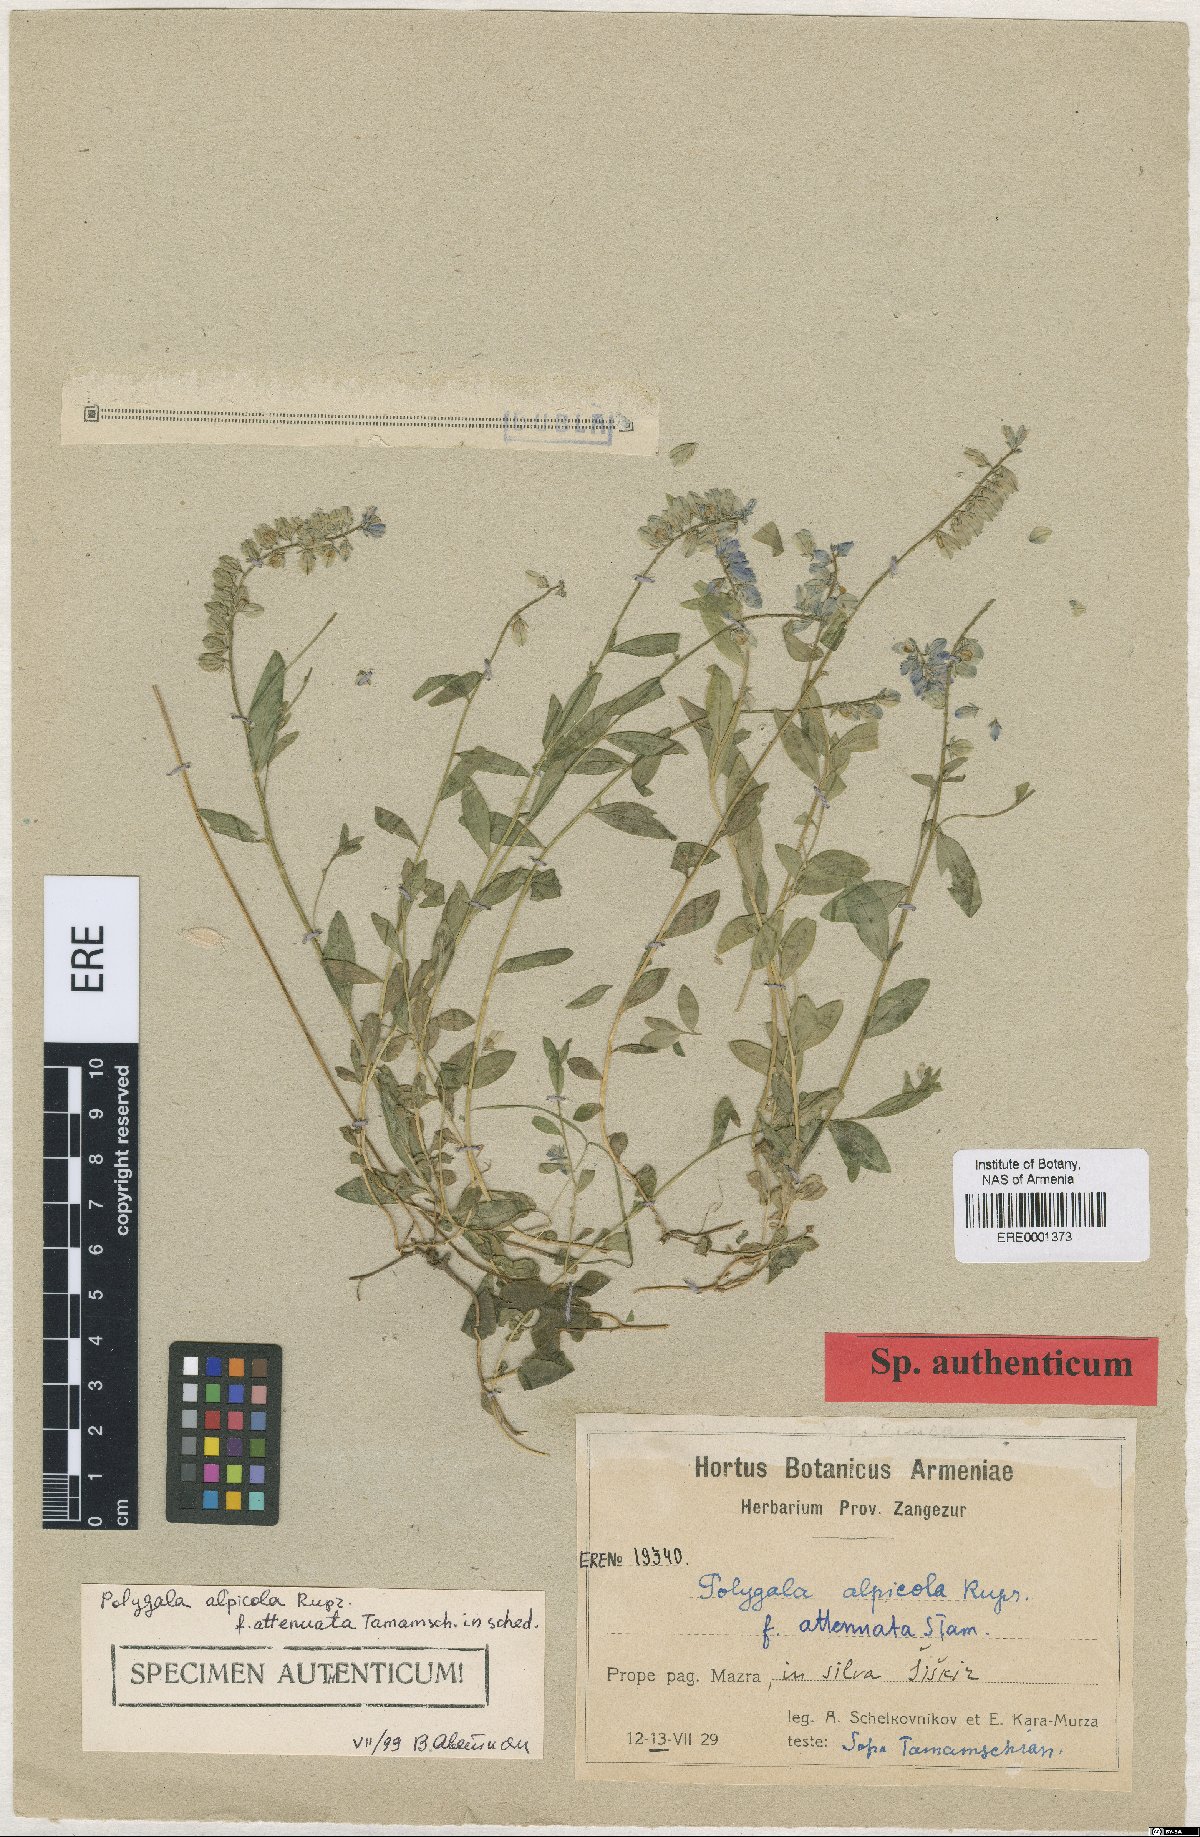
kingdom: Plantae
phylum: Tracheophyta
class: Magnoliopsida
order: Fabales
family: Polygalaceae
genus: Polygala
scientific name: Polygala alpicola
